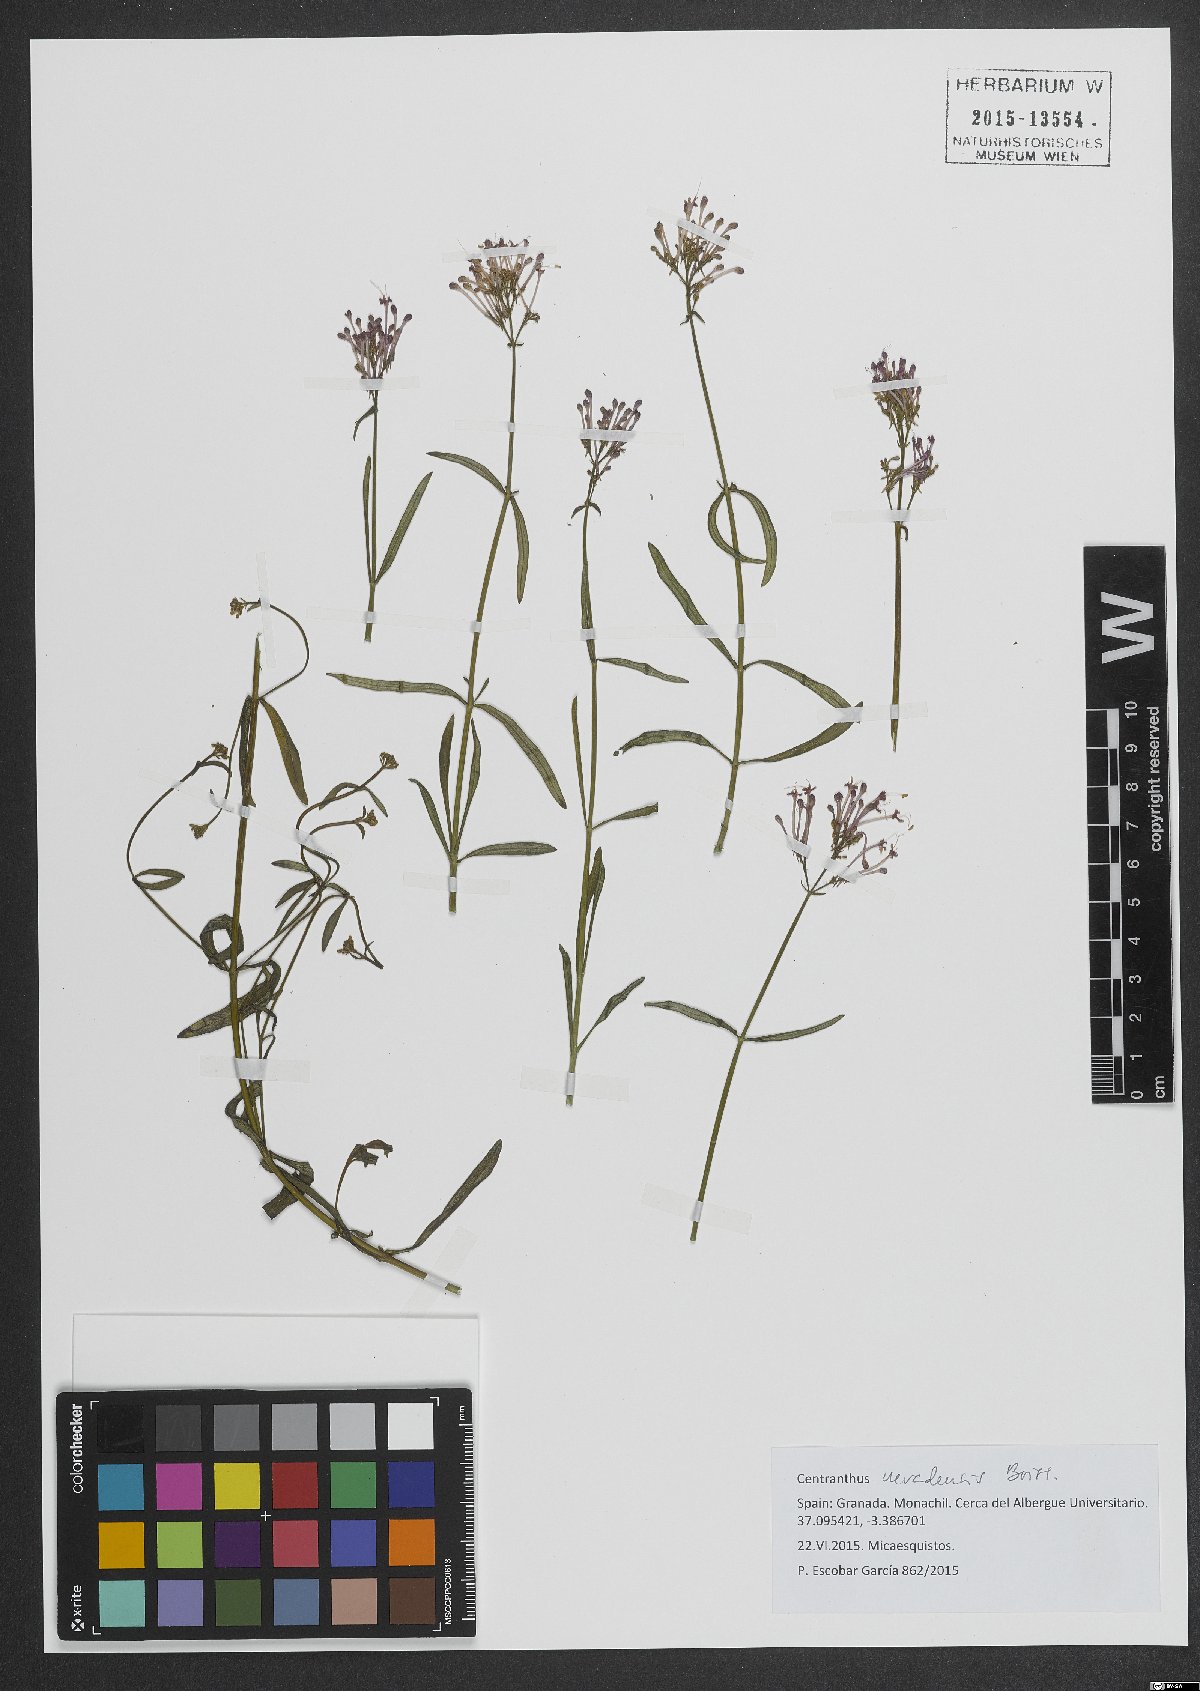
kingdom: Plantae
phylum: Tracheophyta
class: Magnoliopsida
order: Dipsacales
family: Caprifoliaceae
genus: Centranthus
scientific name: Centranthus nevadensis
